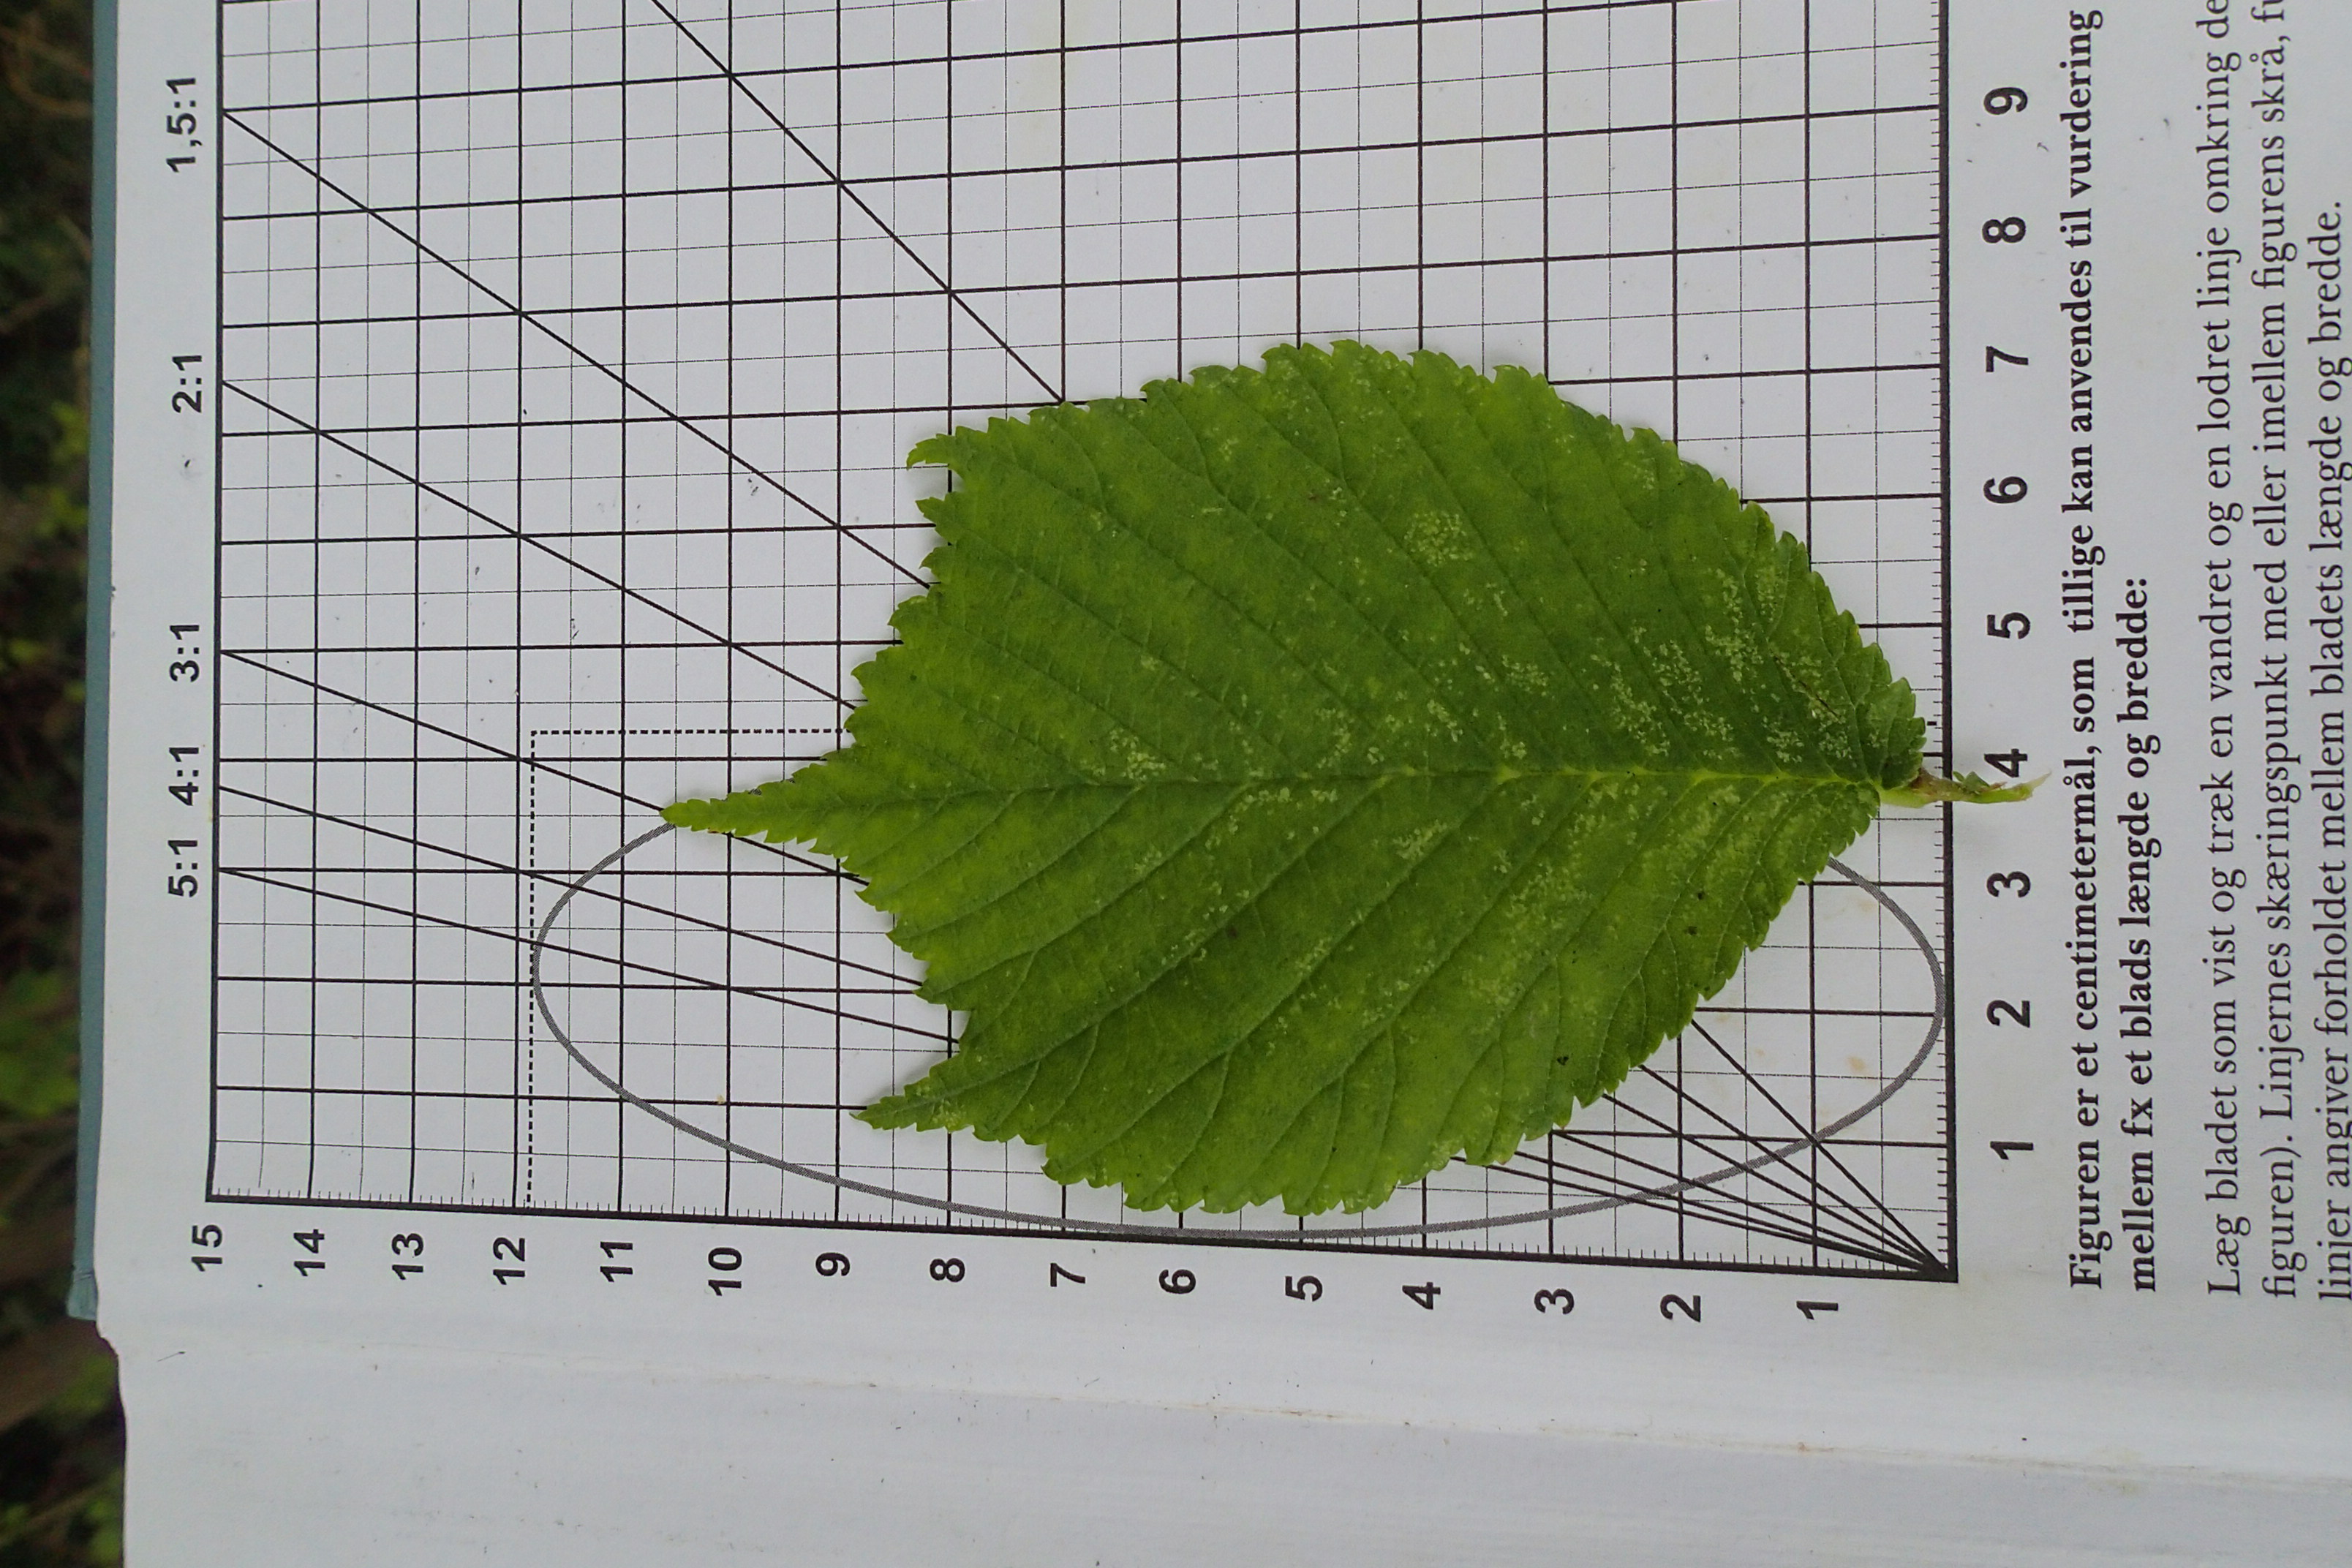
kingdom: Plantae
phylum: Tracheophyta
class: Magnoliopsida
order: Rosales
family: Ulmaceae
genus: Ulmus
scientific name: Ulmus glabra
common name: Skov-elm/storbladet elm
